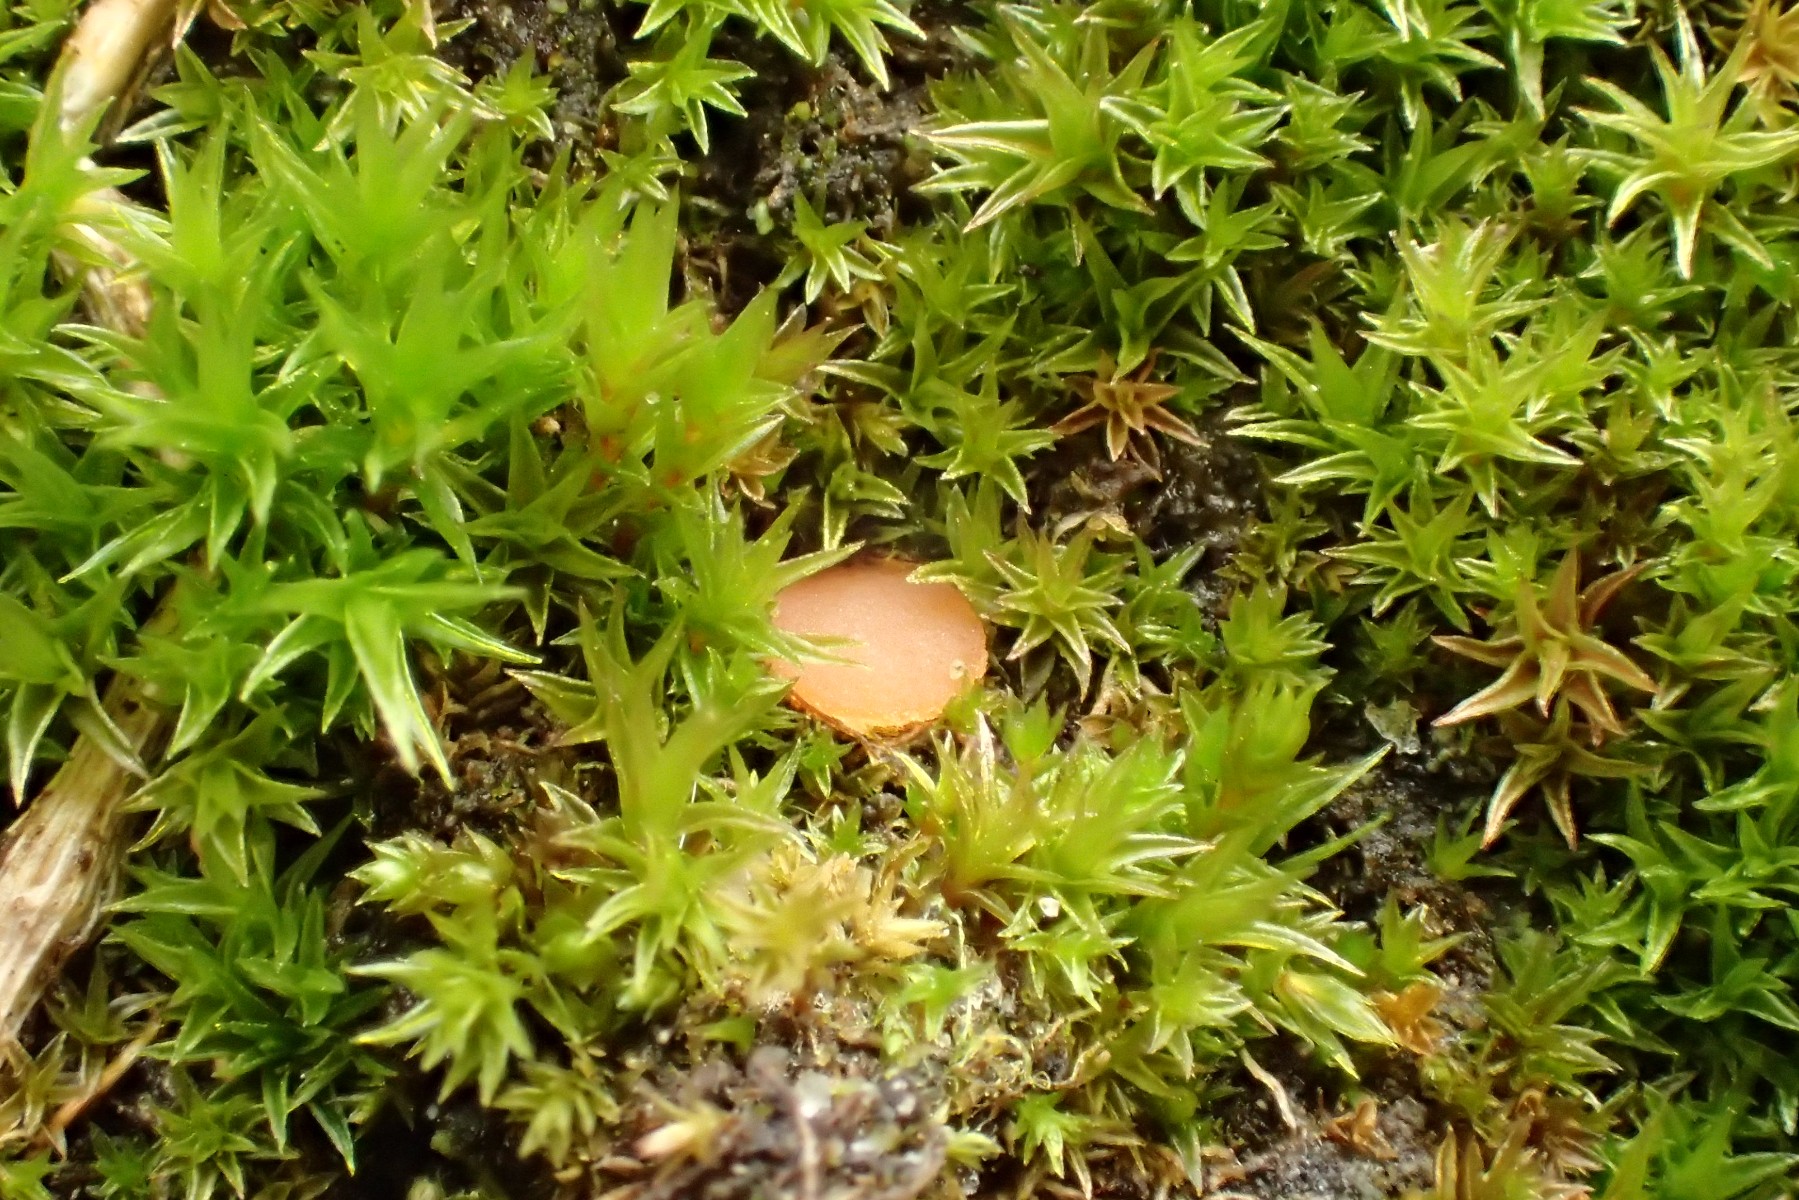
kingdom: Fungi
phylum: Ascomycota
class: Pezizomycetes
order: Pezizales
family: Pyronemataceae
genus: Octospora
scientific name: Octospora rustica
